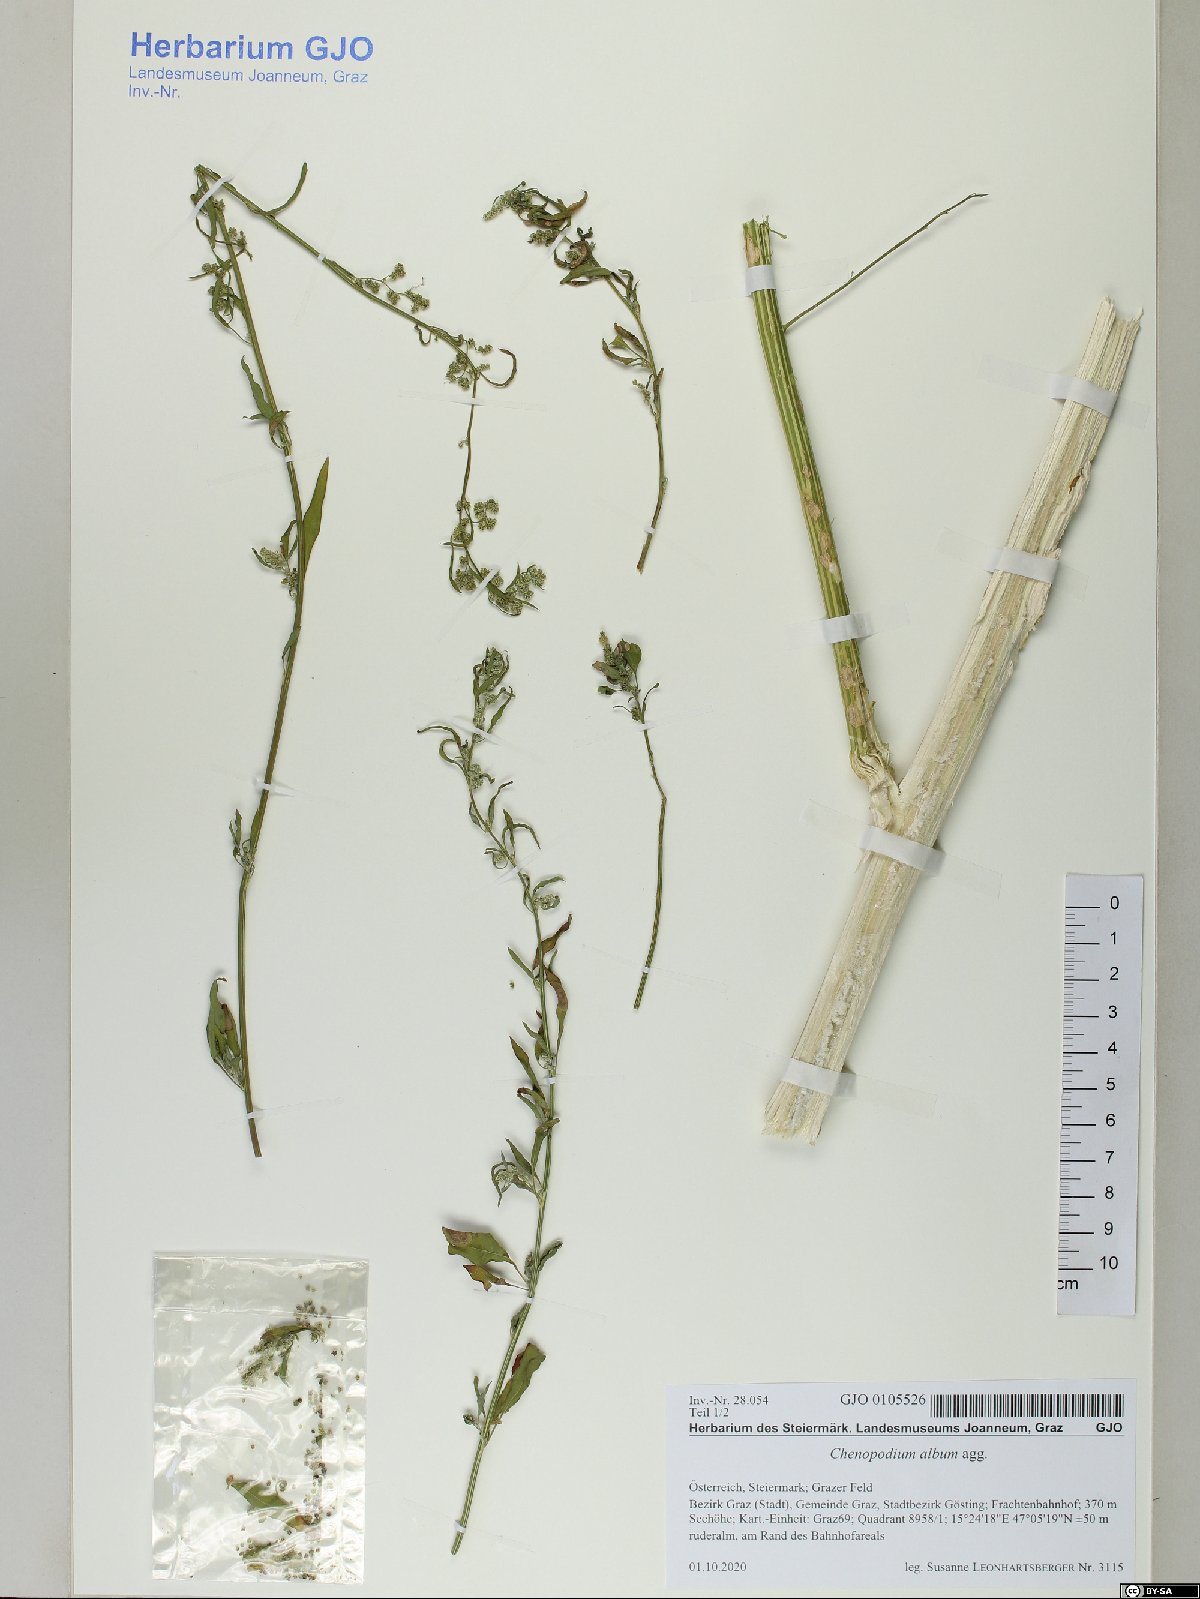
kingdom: Plantae
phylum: Tracheophyta
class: Magnoliopsida
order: Caryophyllales
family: Amaranthaceae
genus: Chenopodium
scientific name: Chenopodium album
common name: Fat-hen
